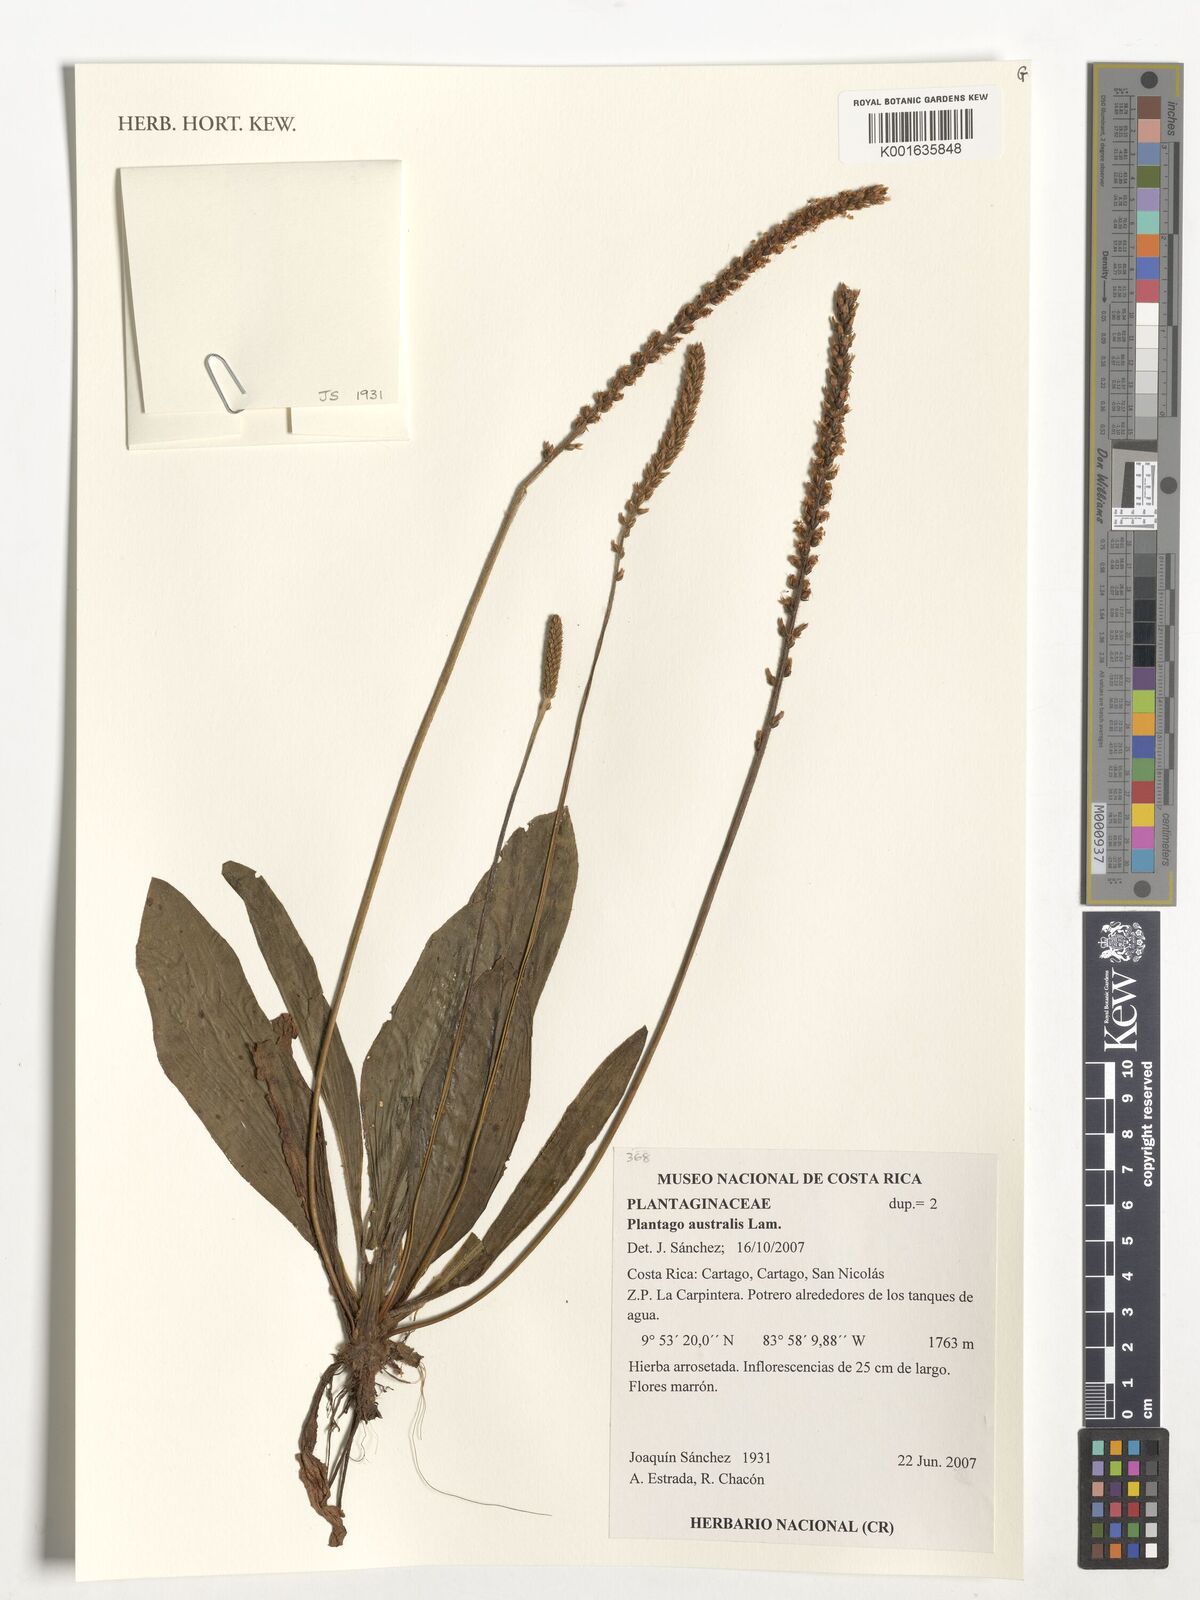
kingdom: Plantae
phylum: Tracheophyta
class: Magnoliopsida
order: Lamiales
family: Plantaginaceae
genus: Plantago
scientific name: Plantago australis
